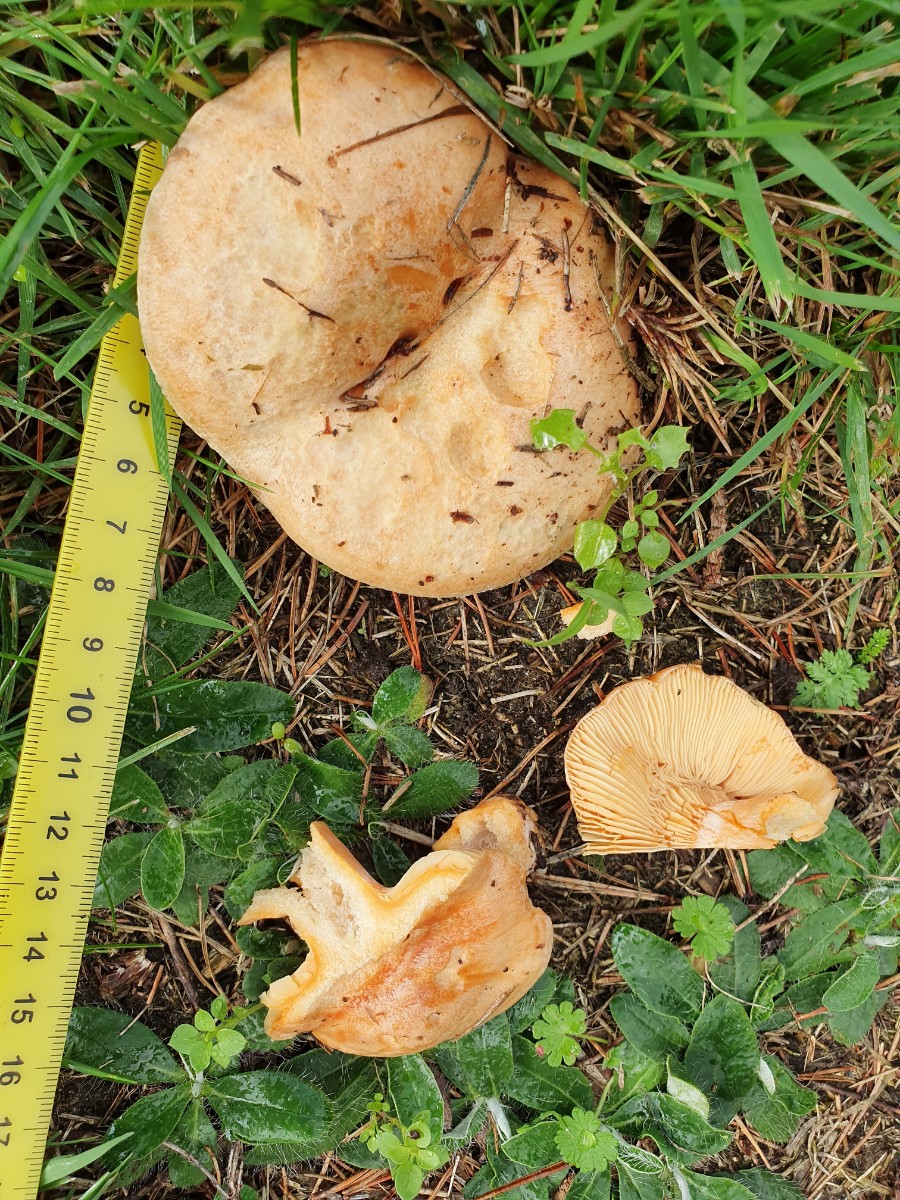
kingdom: Fungi
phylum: Basidiomycota
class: Agaricomycetes
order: Russulales
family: Russulaceae
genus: Lactarius
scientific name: Lactarius deliciosus
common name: velsmagende mælkehat
